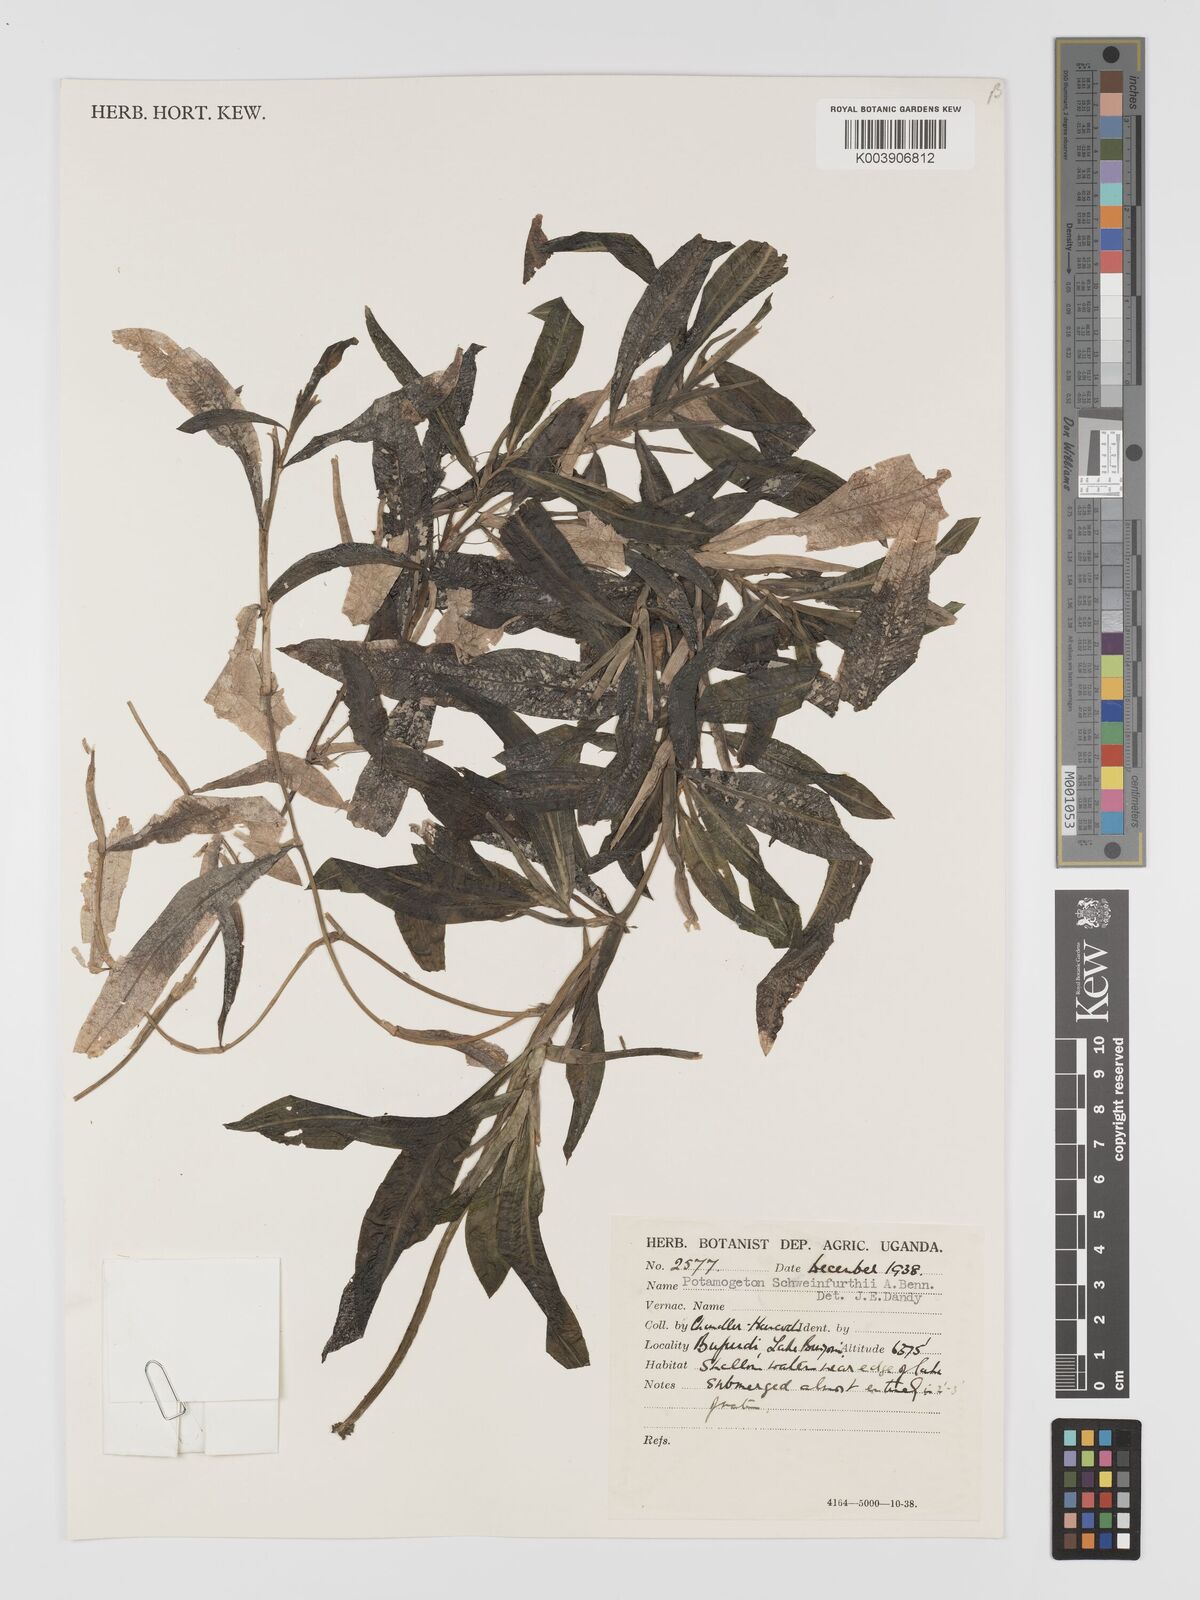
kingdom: Plantae
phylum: Tracheophyta
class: Liliopsida
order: Alismatales
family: Potamogetonaceae
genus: Potamogeton
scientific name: Potamogeton schweinfurthii
